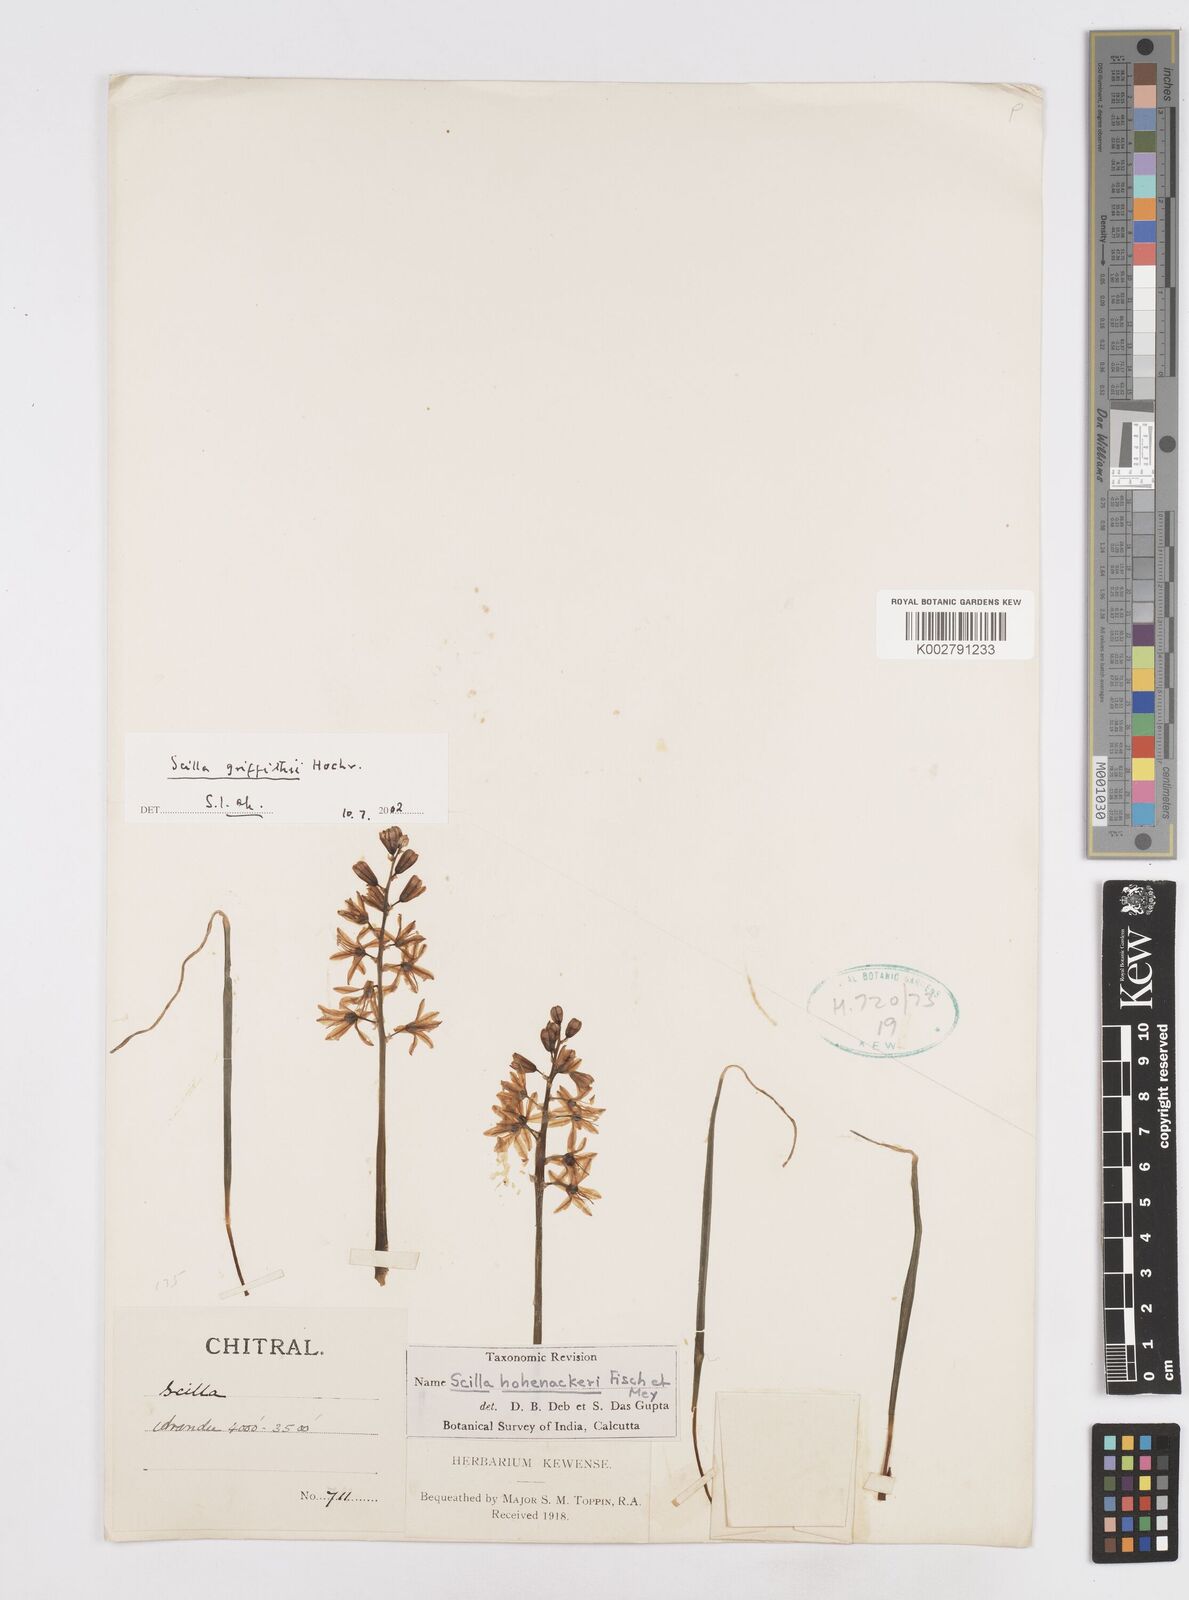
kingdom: Plantae
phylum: Tracheophyta
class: Liliopsida
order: Asparagales
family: Asparagaceae
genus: Scilla
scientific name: Scilla bifolia
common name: Alpine squill
